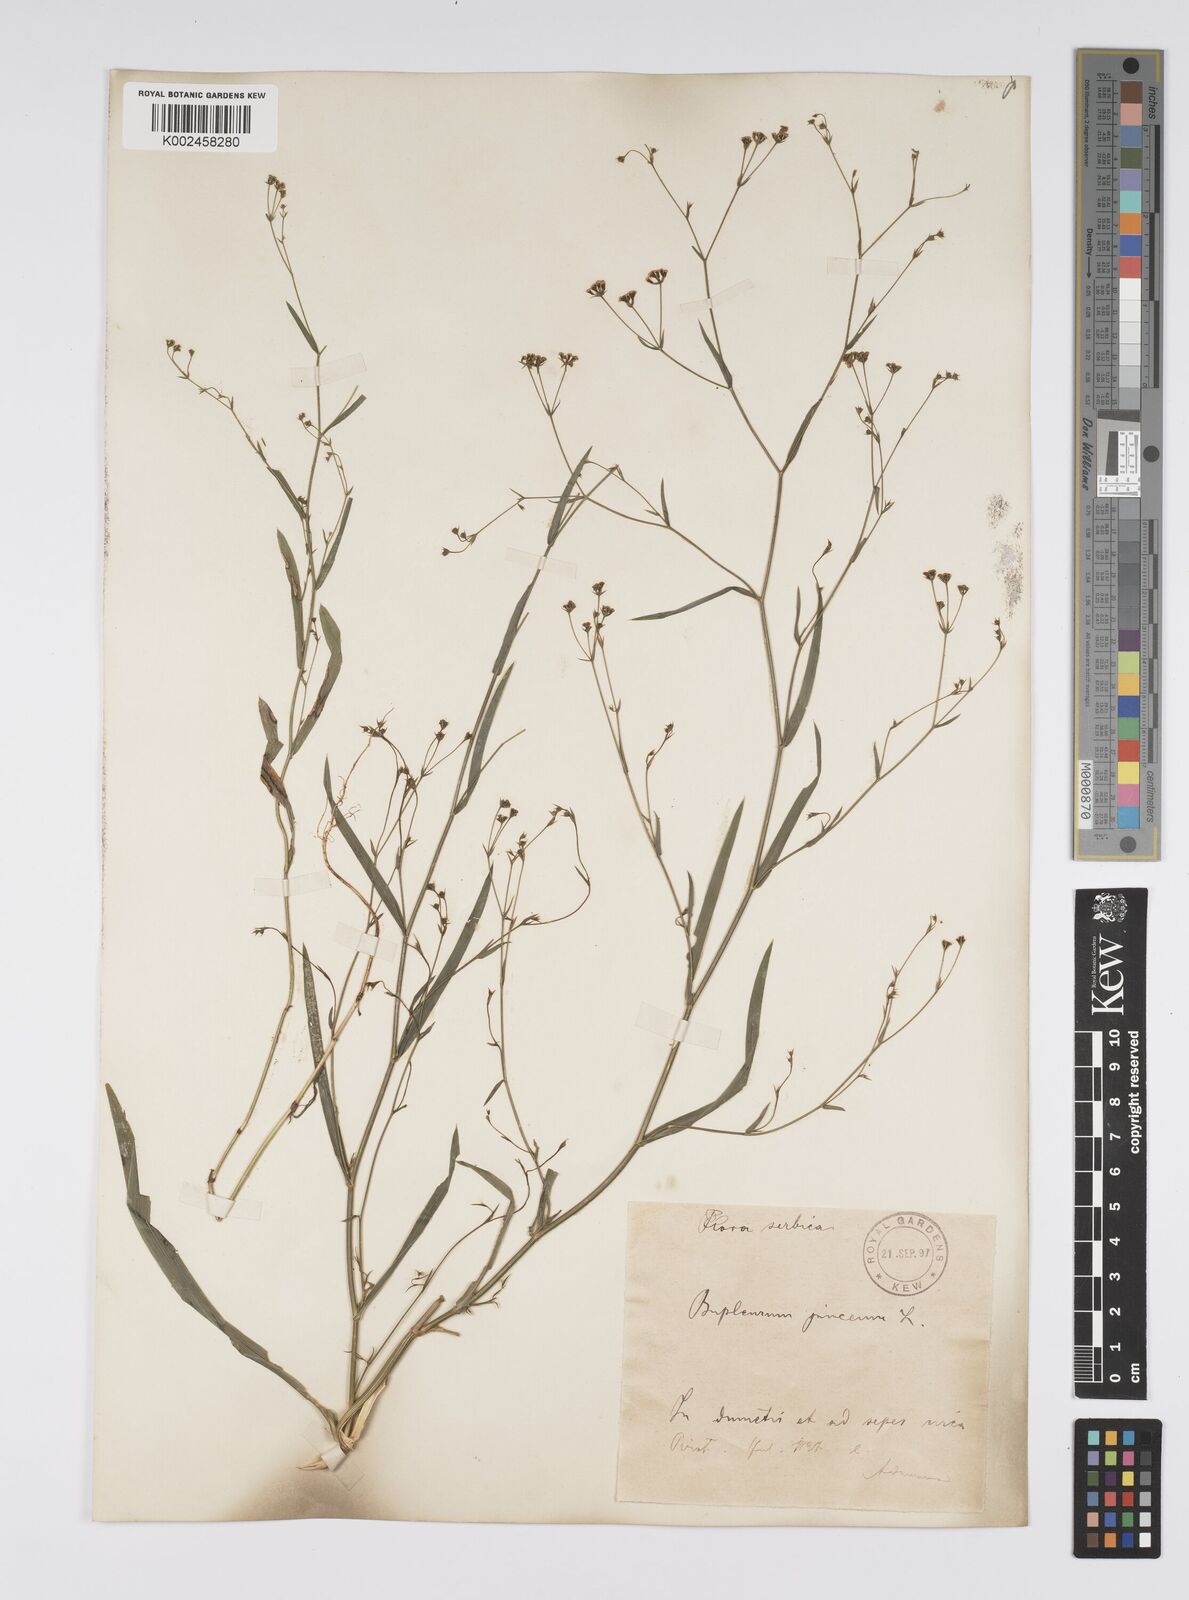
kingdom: Plantae
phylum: Tracheophyta
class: Magnoliopsida
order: Apiales
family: Apiaceae
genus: Bupleurum
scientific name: Bupleurum praealtum
